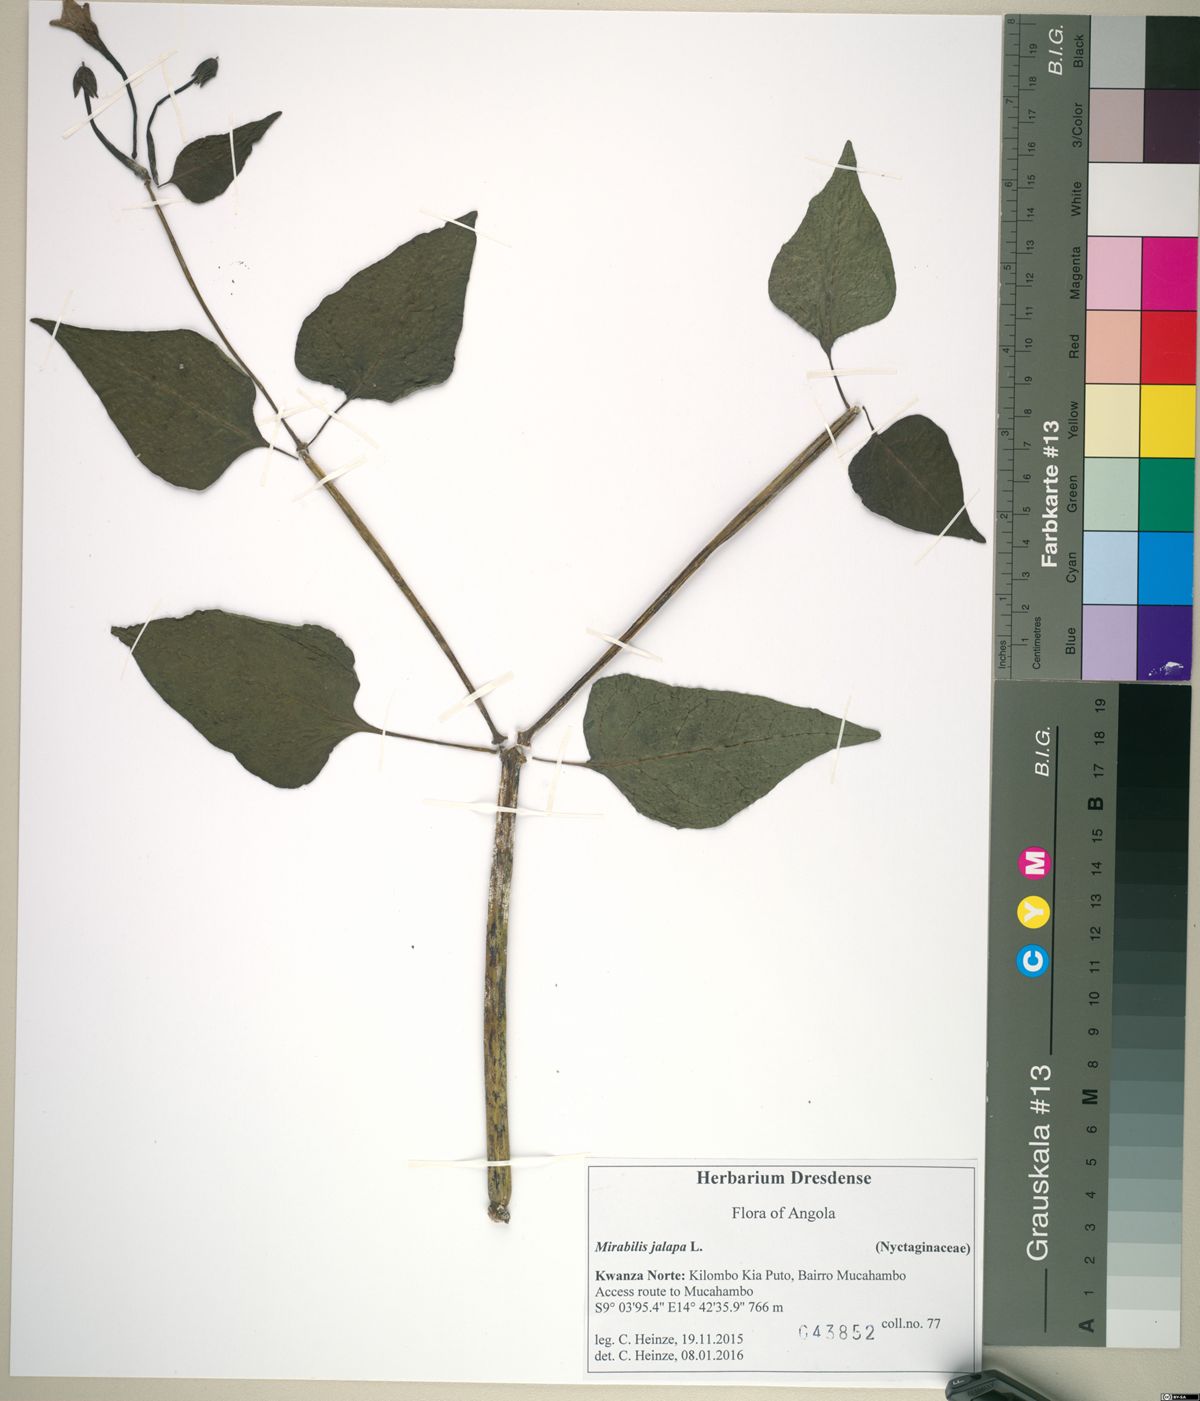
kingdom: Plantae
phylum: Tracheophyta
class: Magnoliopsida
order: Caryophyllales
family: Nyctaginaceae
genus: Mirabilis
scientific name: Mirabilis jalapa
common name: Marvel-of-peru
